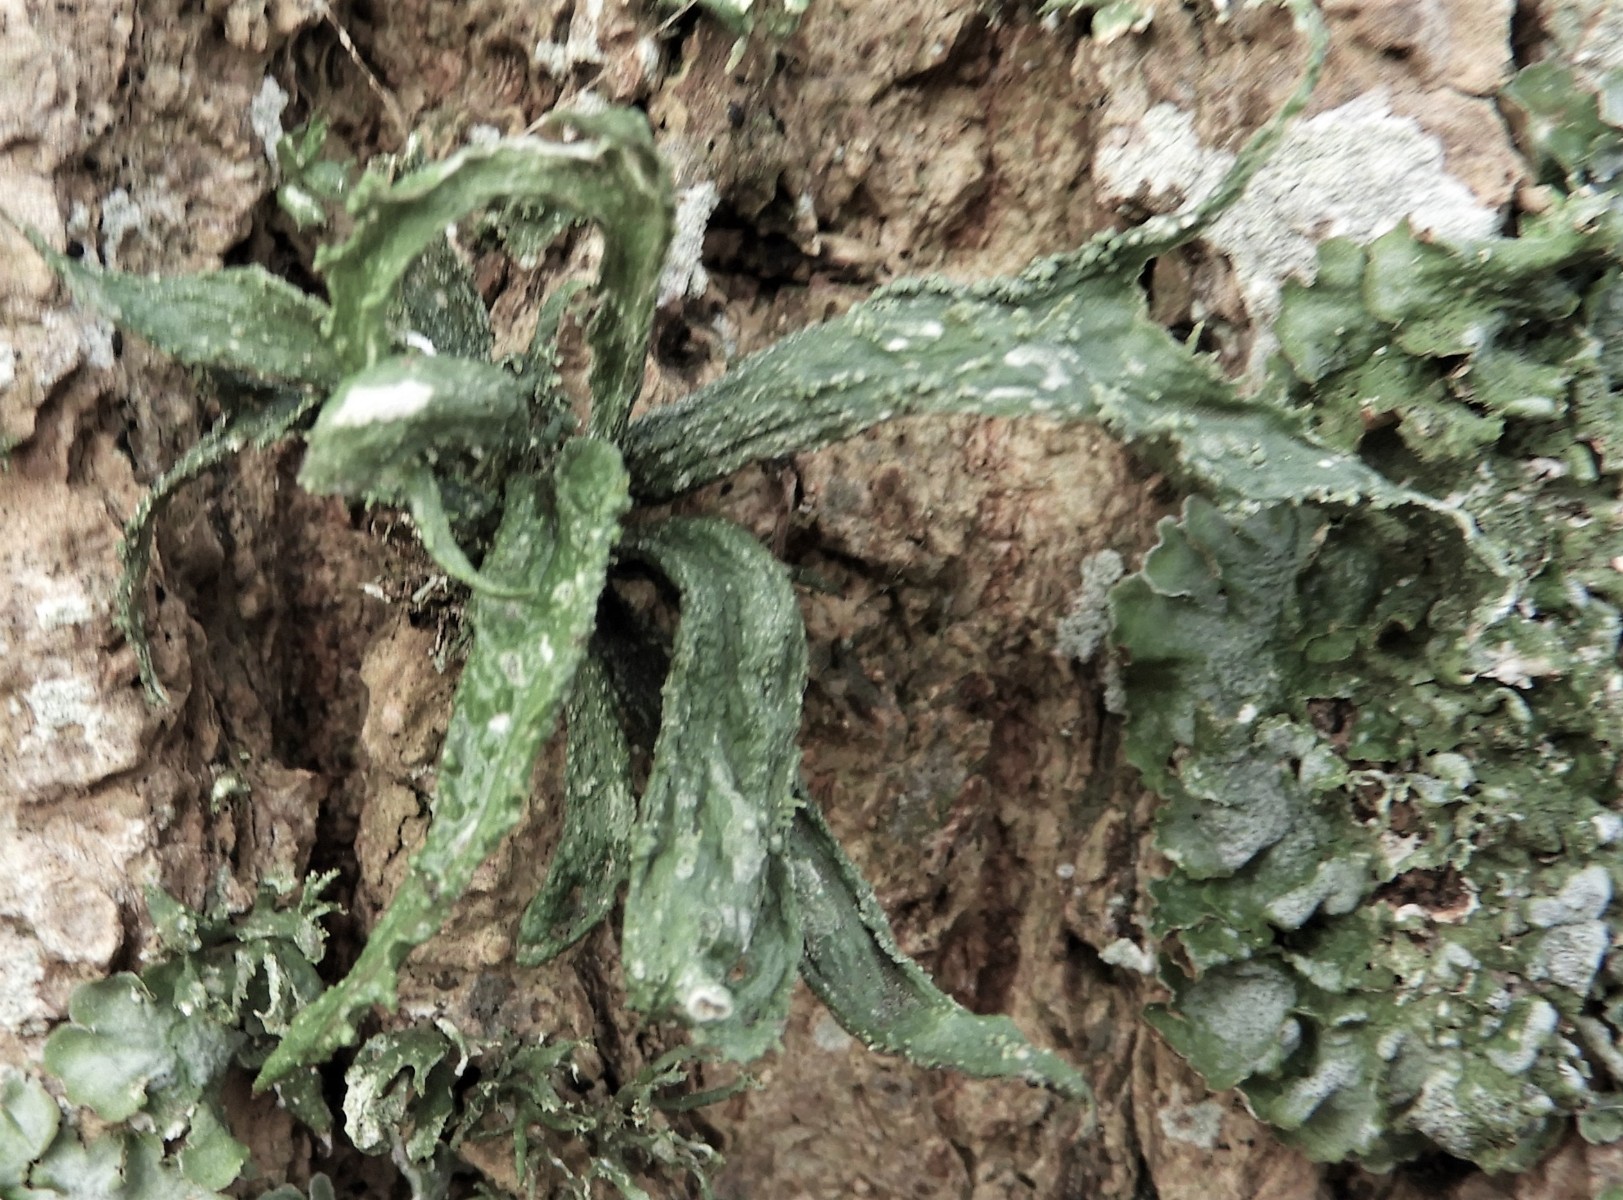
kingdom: Fungi
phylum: Ascomycota
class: Lecanoromycetes
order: Lecanorales
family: Ramalinaceae
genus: Ramalina
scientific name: Ramalina fraxinea
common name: stor grenlav
